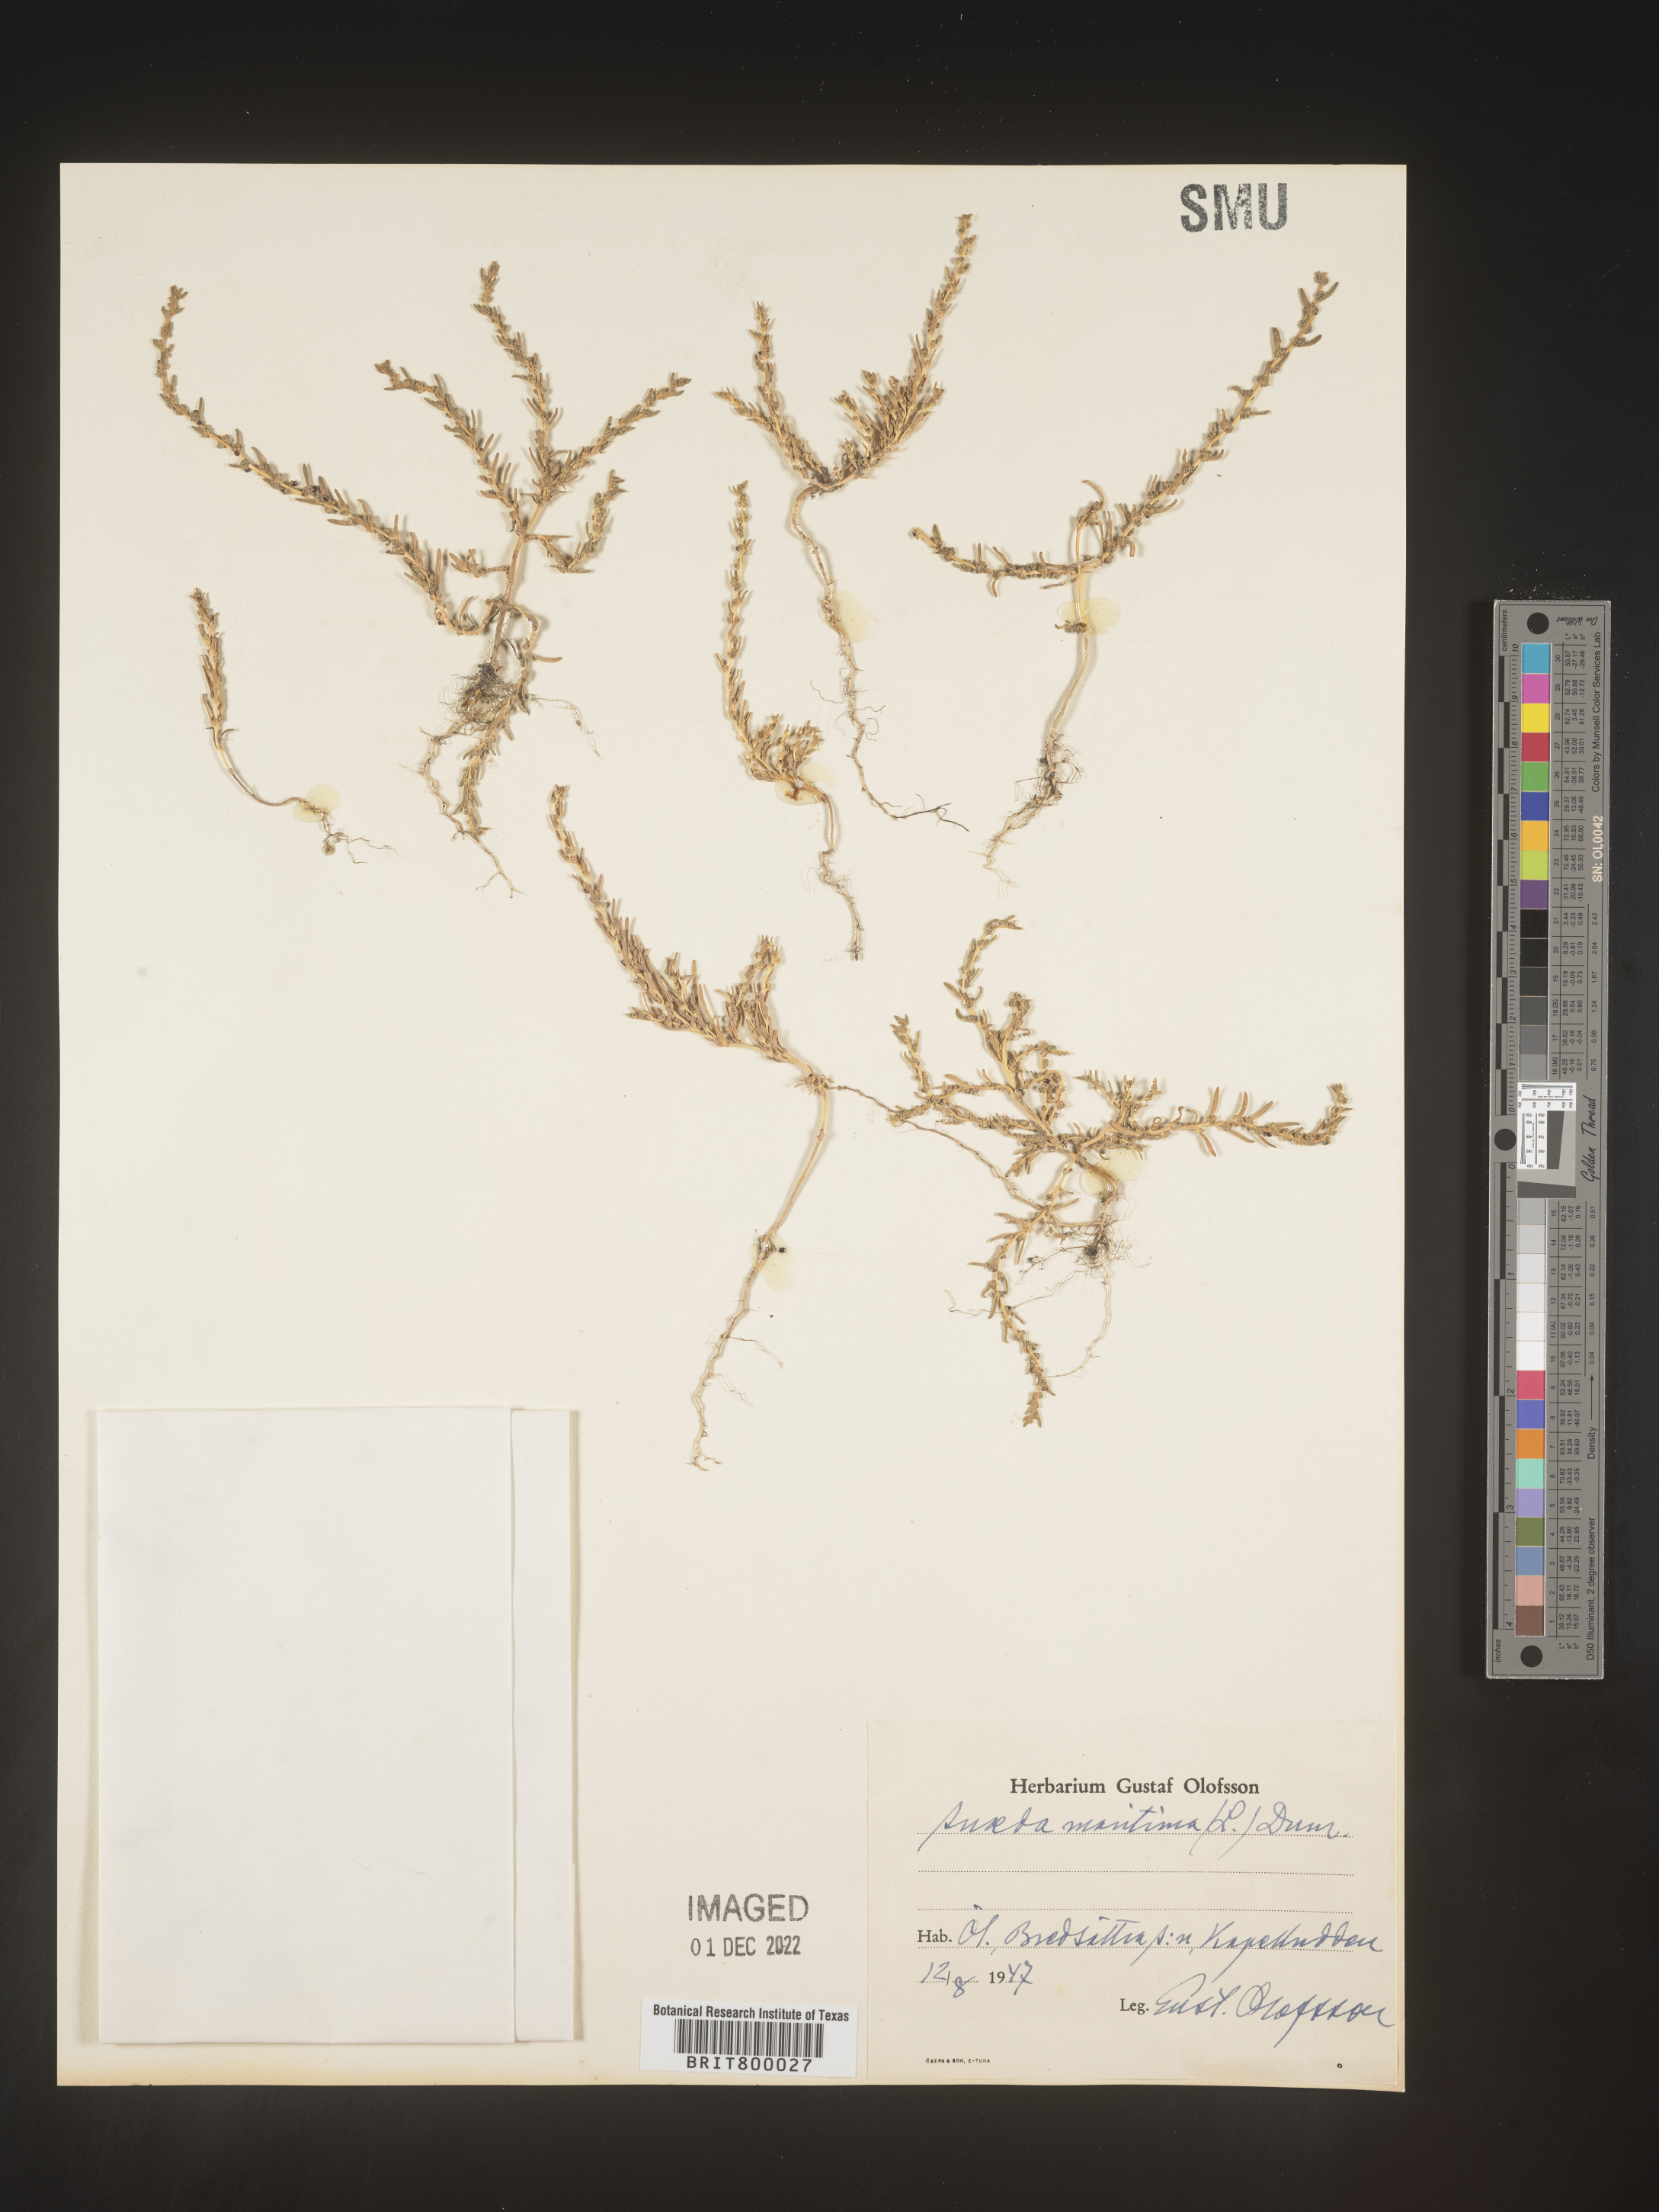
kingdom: Plantae
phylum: Tracheophyta
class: Magnoliopsida
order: Caryophyllales
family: Amaranthaceae
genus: Suaeda
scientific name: Suaeda
